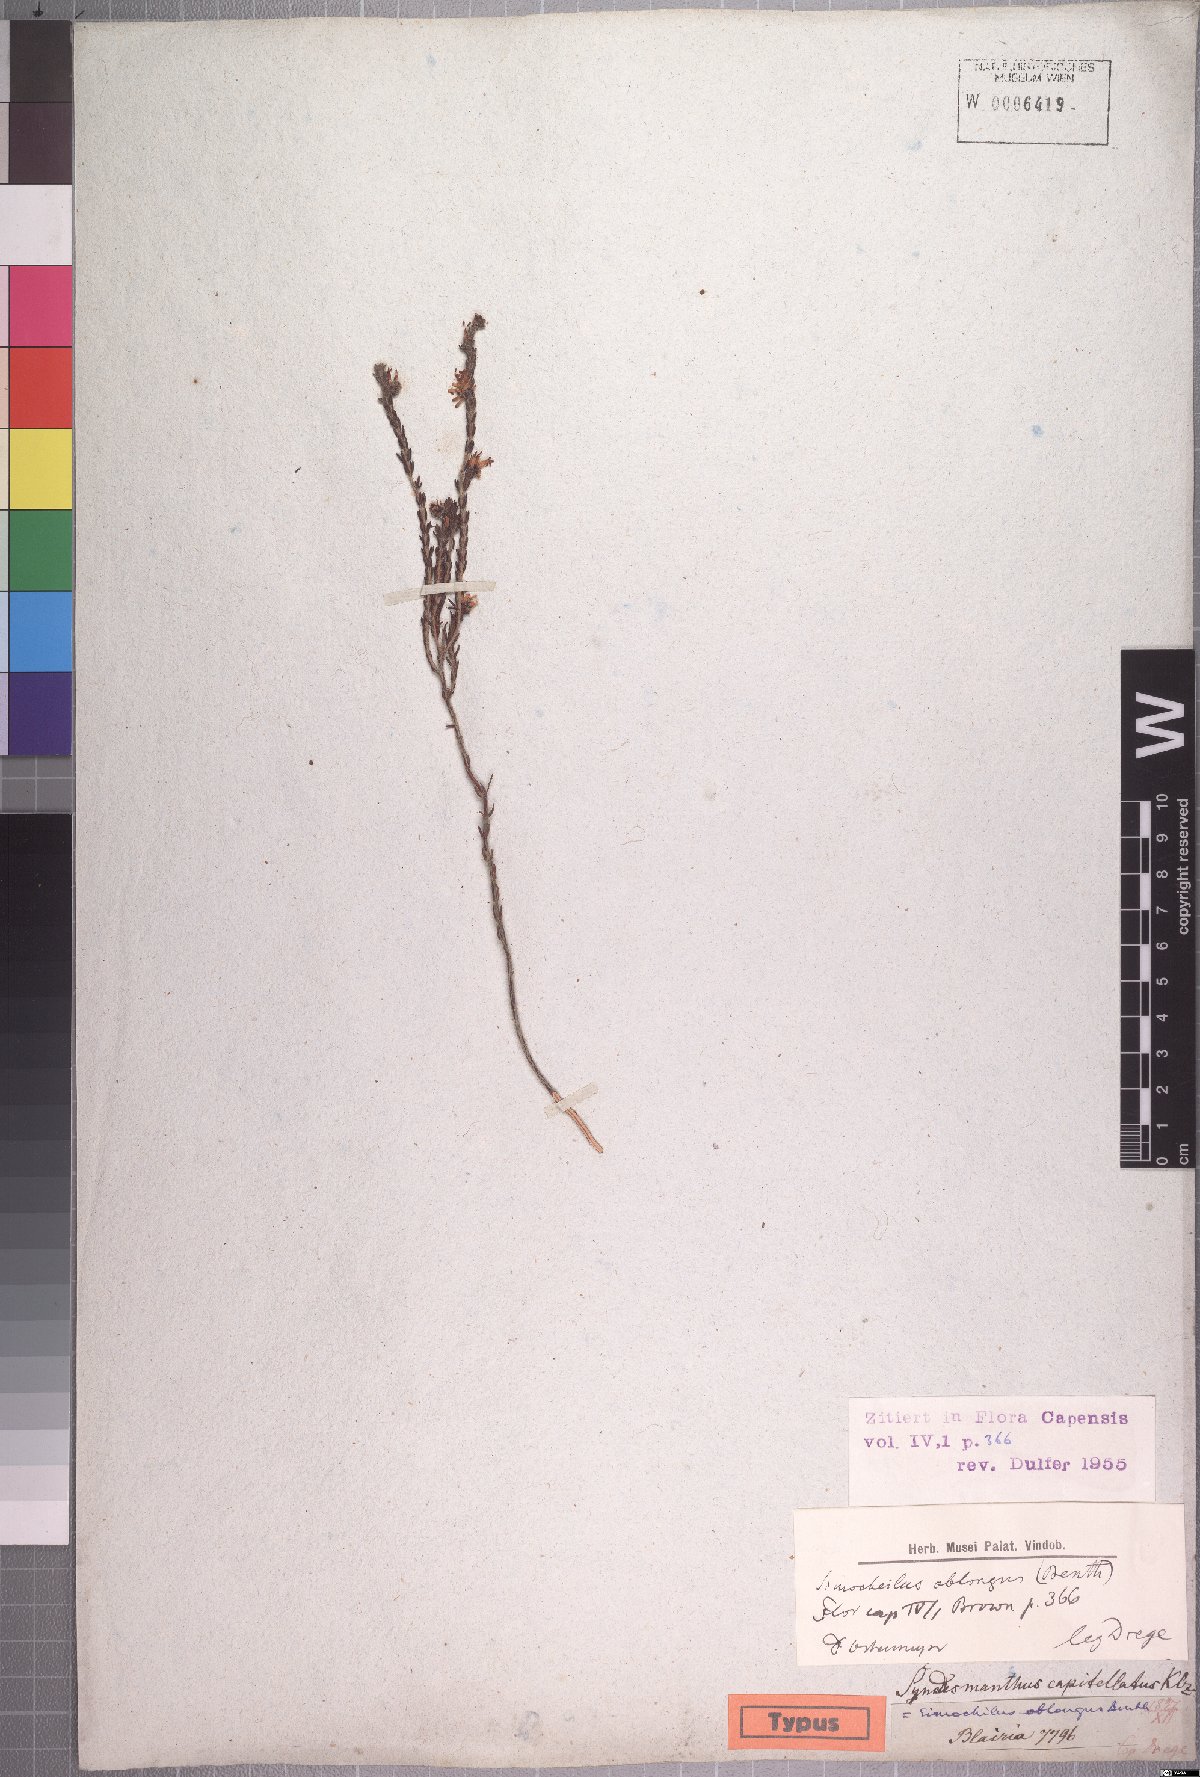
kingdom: Plantae
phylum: Tracheophyta
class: Magnoliopsida
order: Ericales
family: Ericaceae
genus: Erica
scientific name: Erica dregei
